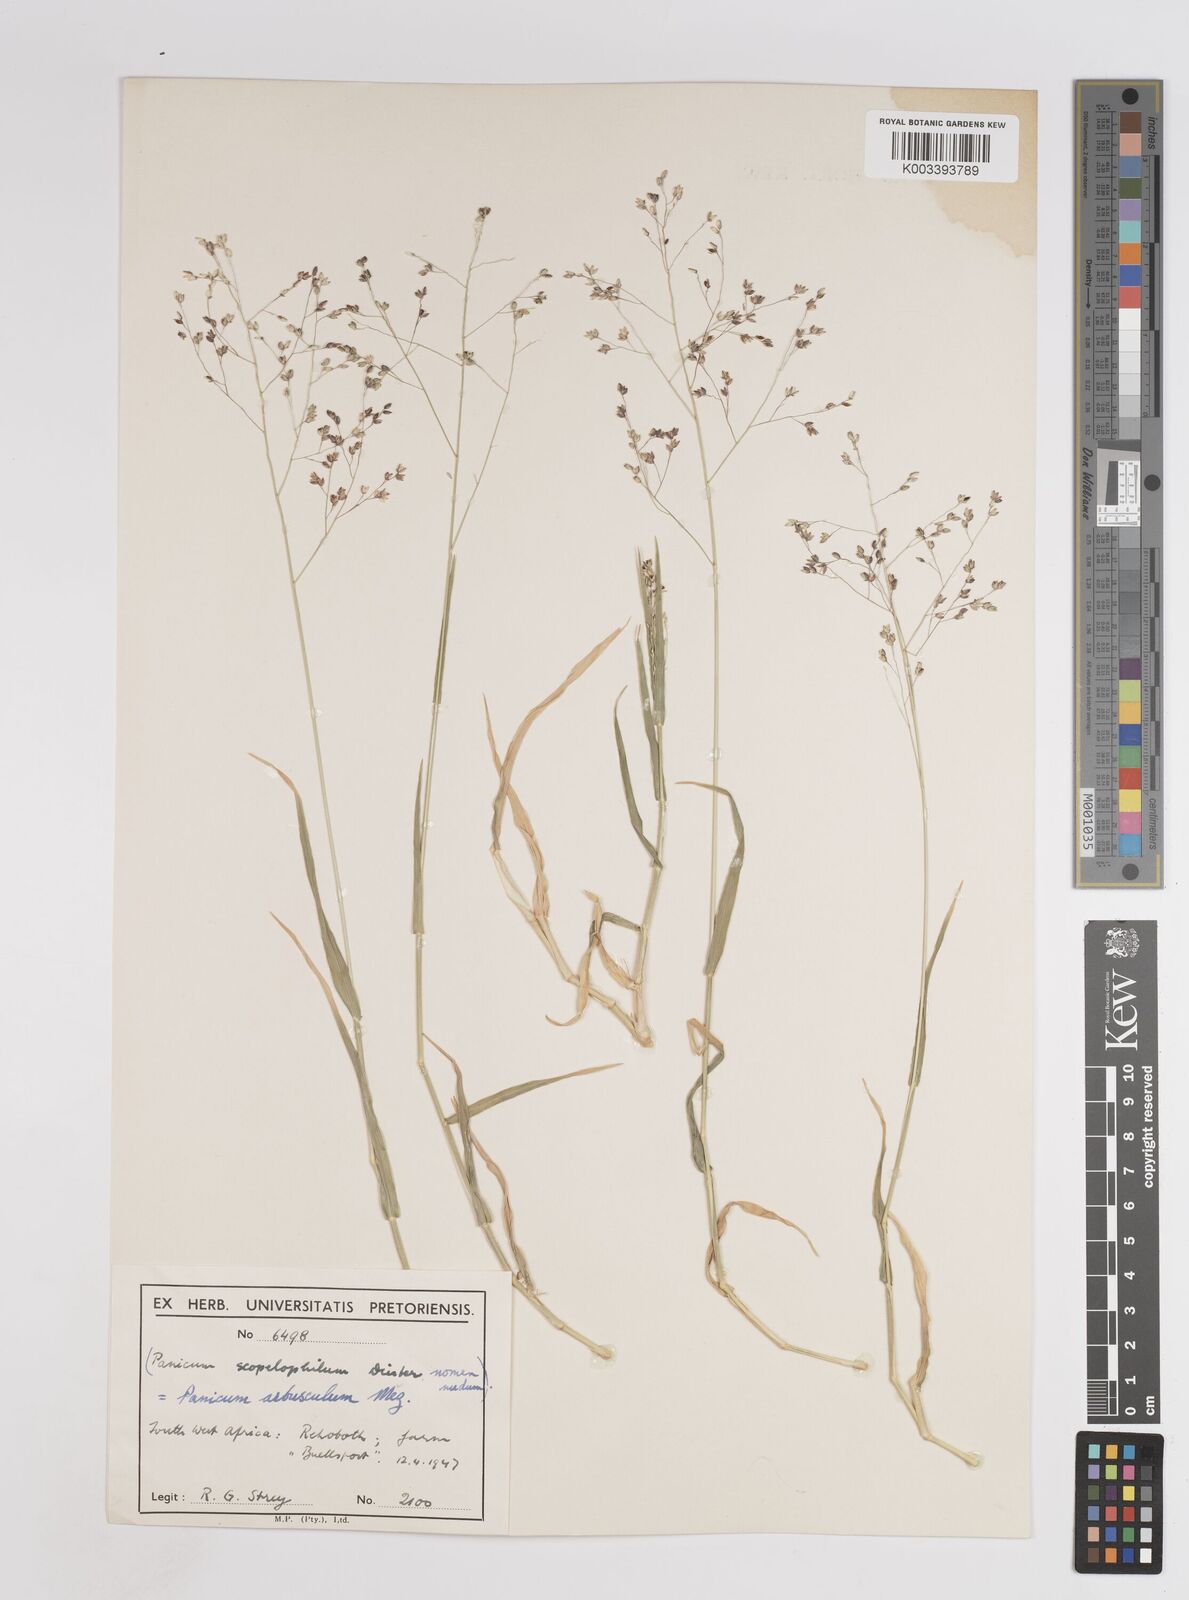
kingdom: Plantae
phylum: Tracheophyta
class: Liliopsida
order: Poales
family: Poaceae
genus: Panicum
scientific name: Panicum arbusculum
